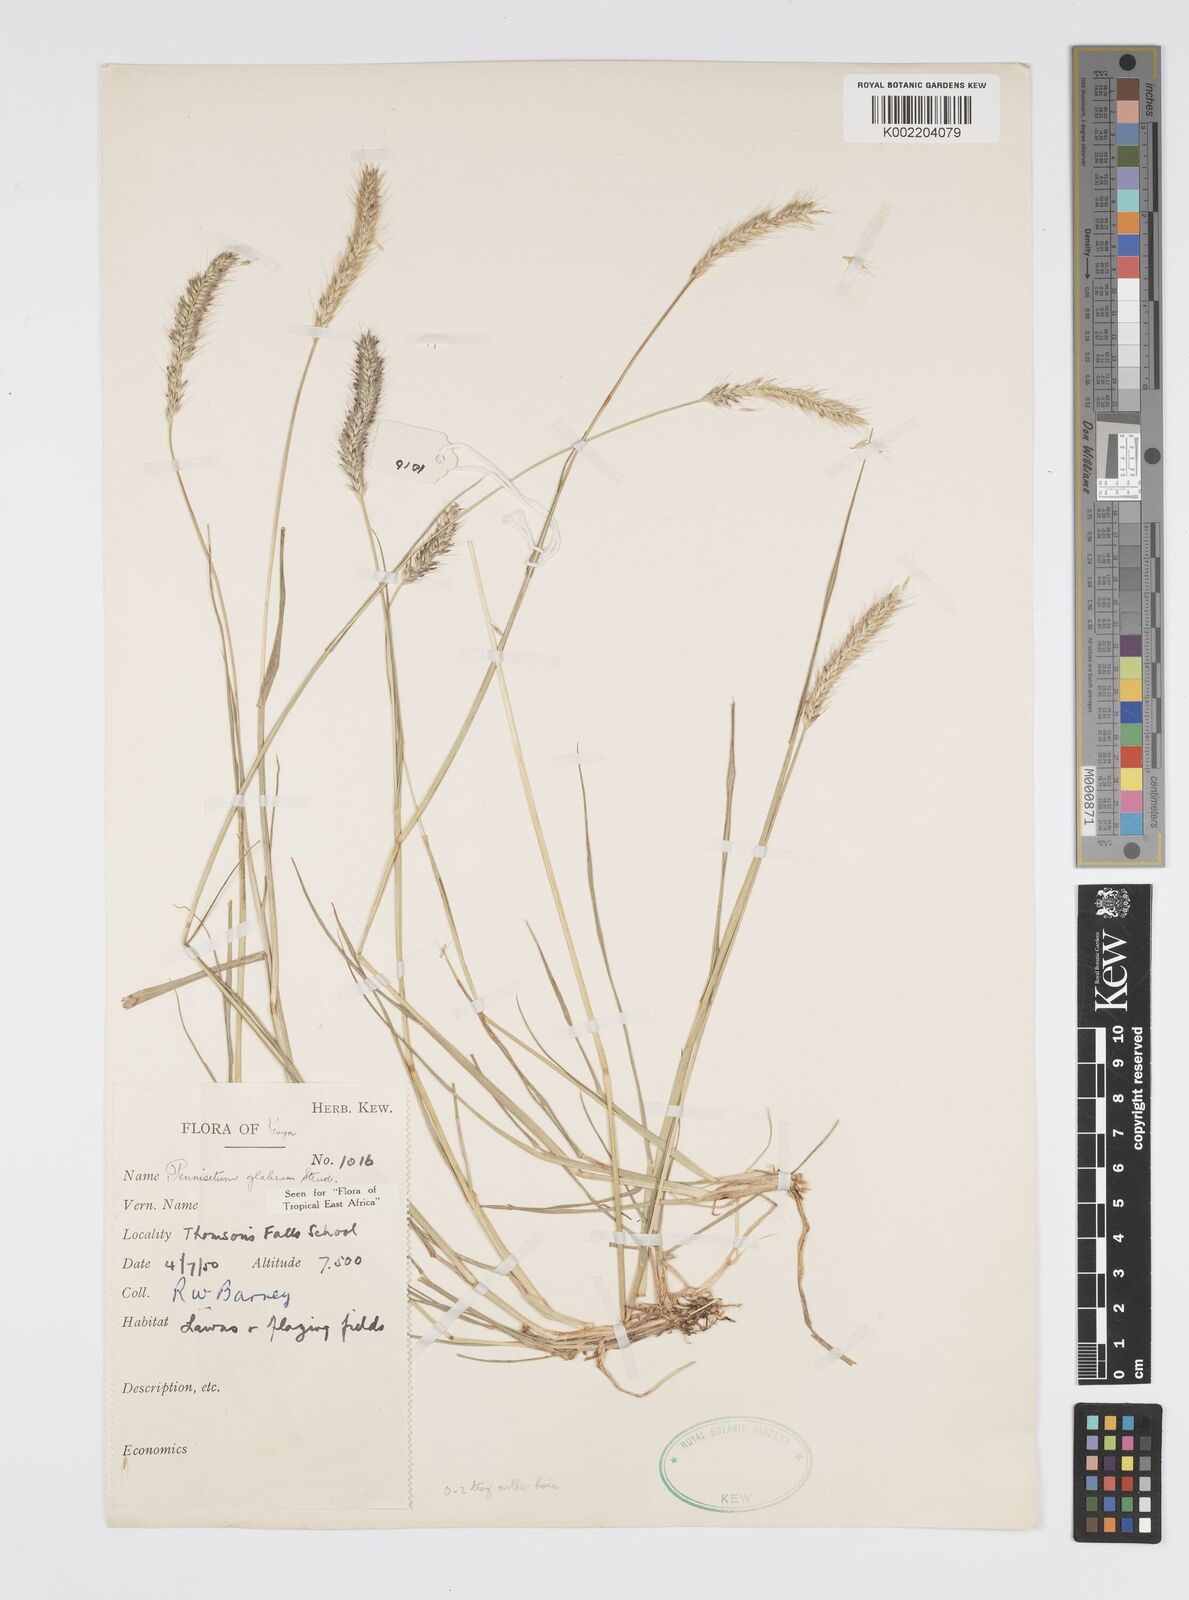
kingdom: Plantae
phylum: Tracheophyta
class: Liliopsida
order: Poales
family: Poaceae
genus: Cenchrus
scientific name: Cenchrus geniculatus
